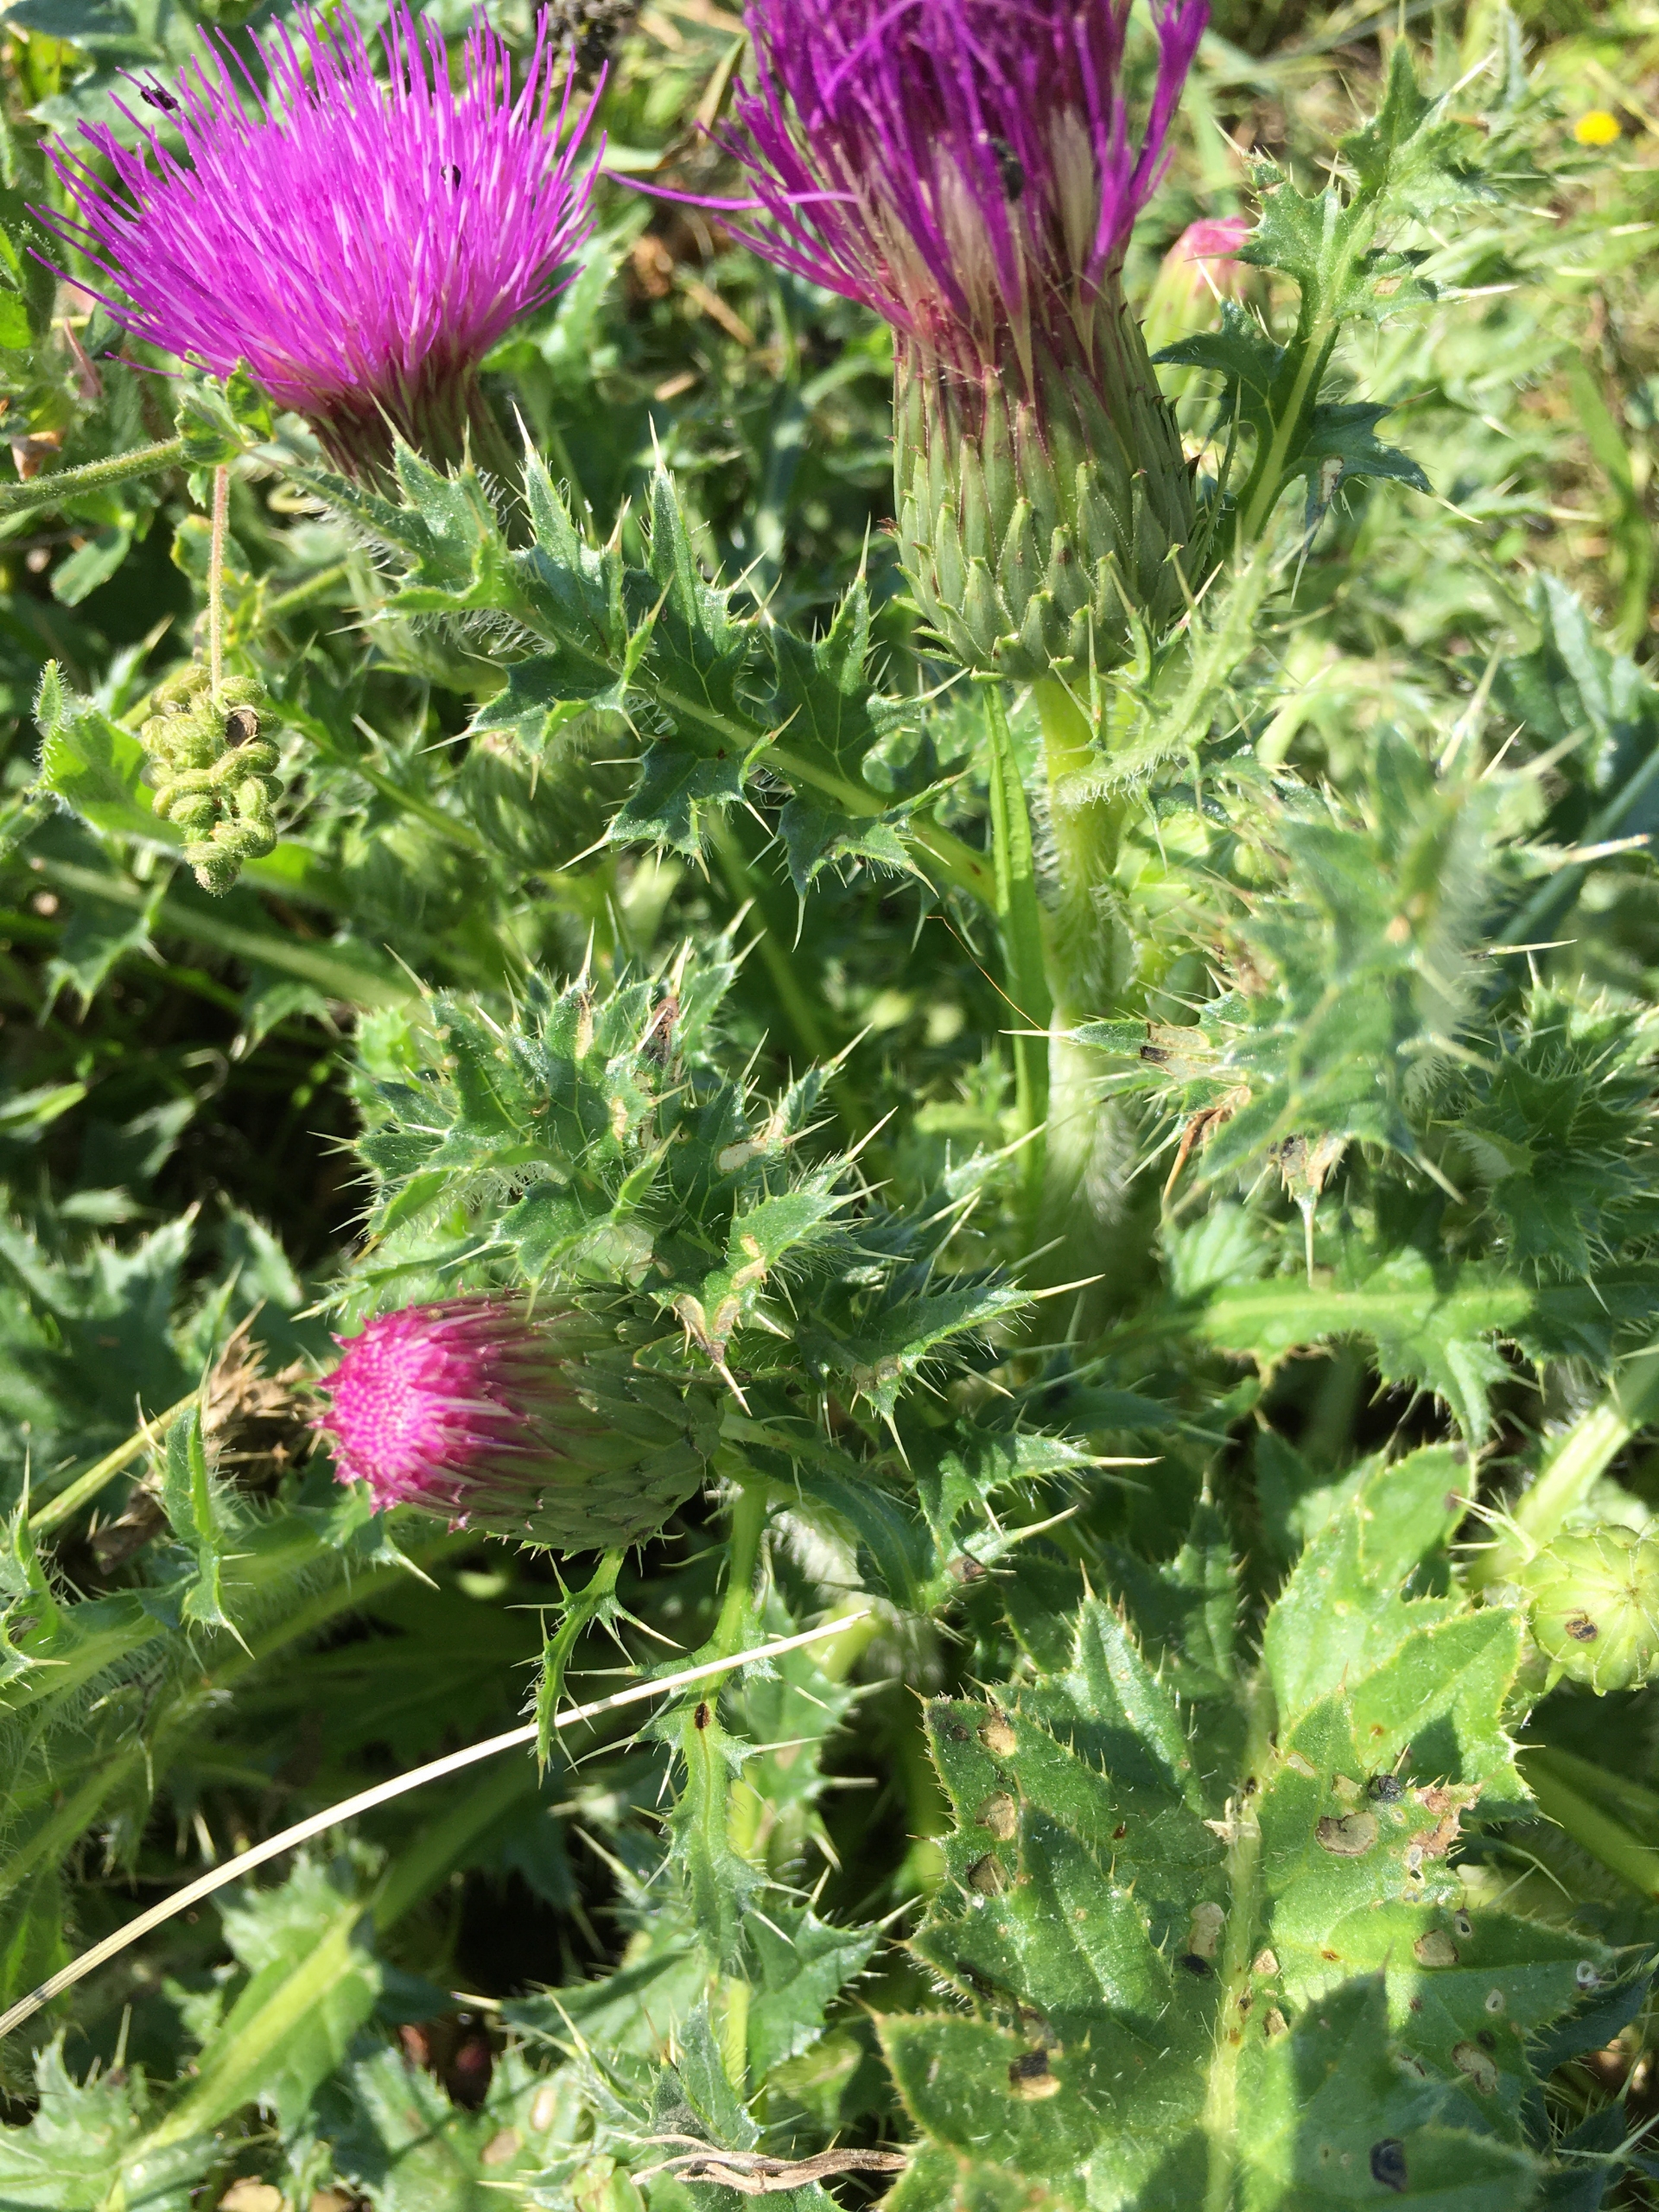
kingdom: Plantae
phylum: Tracheophyta
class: Magnoliopsida
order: Asterales
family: Asteraceae
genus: Cirsium
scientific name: Cirsium acaule
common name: Lav tidsel
